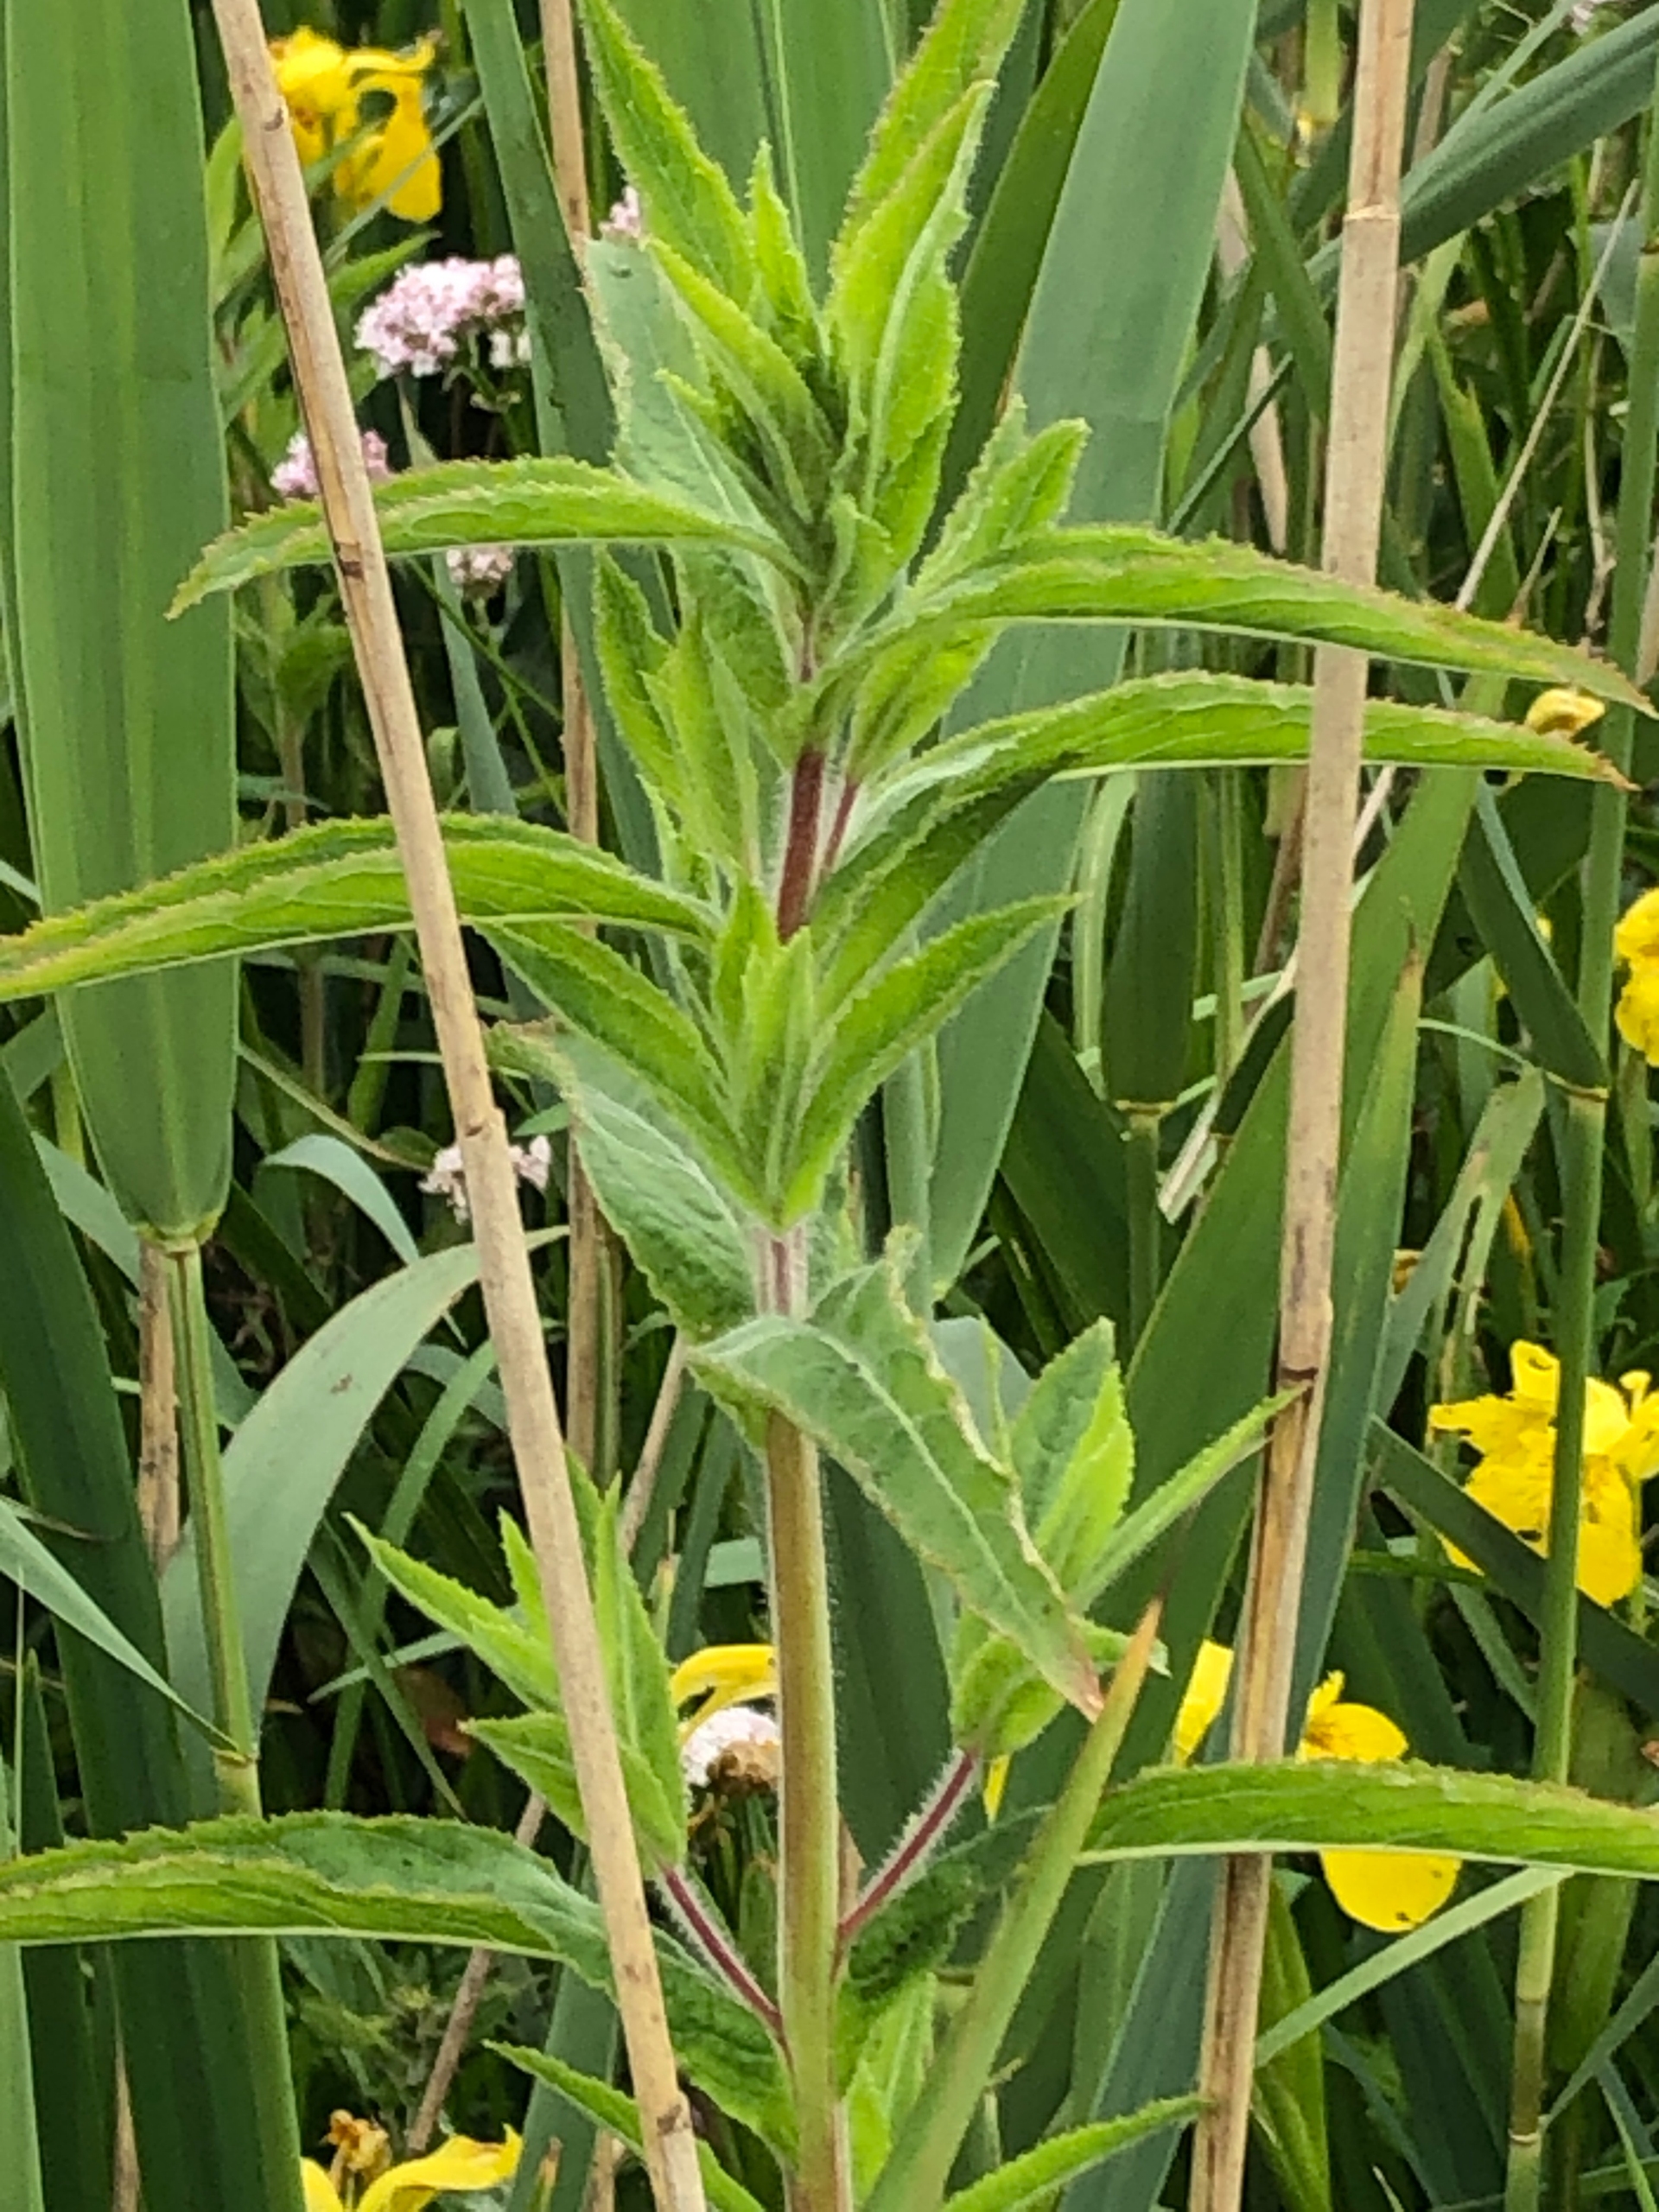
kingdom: Plantae
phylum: Tracheophyta
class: Magnoliopsida
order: Myrtales
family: Onagraceae
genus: Epilobium
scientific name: Epilobium hirsutum
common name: Lådden dueurt
